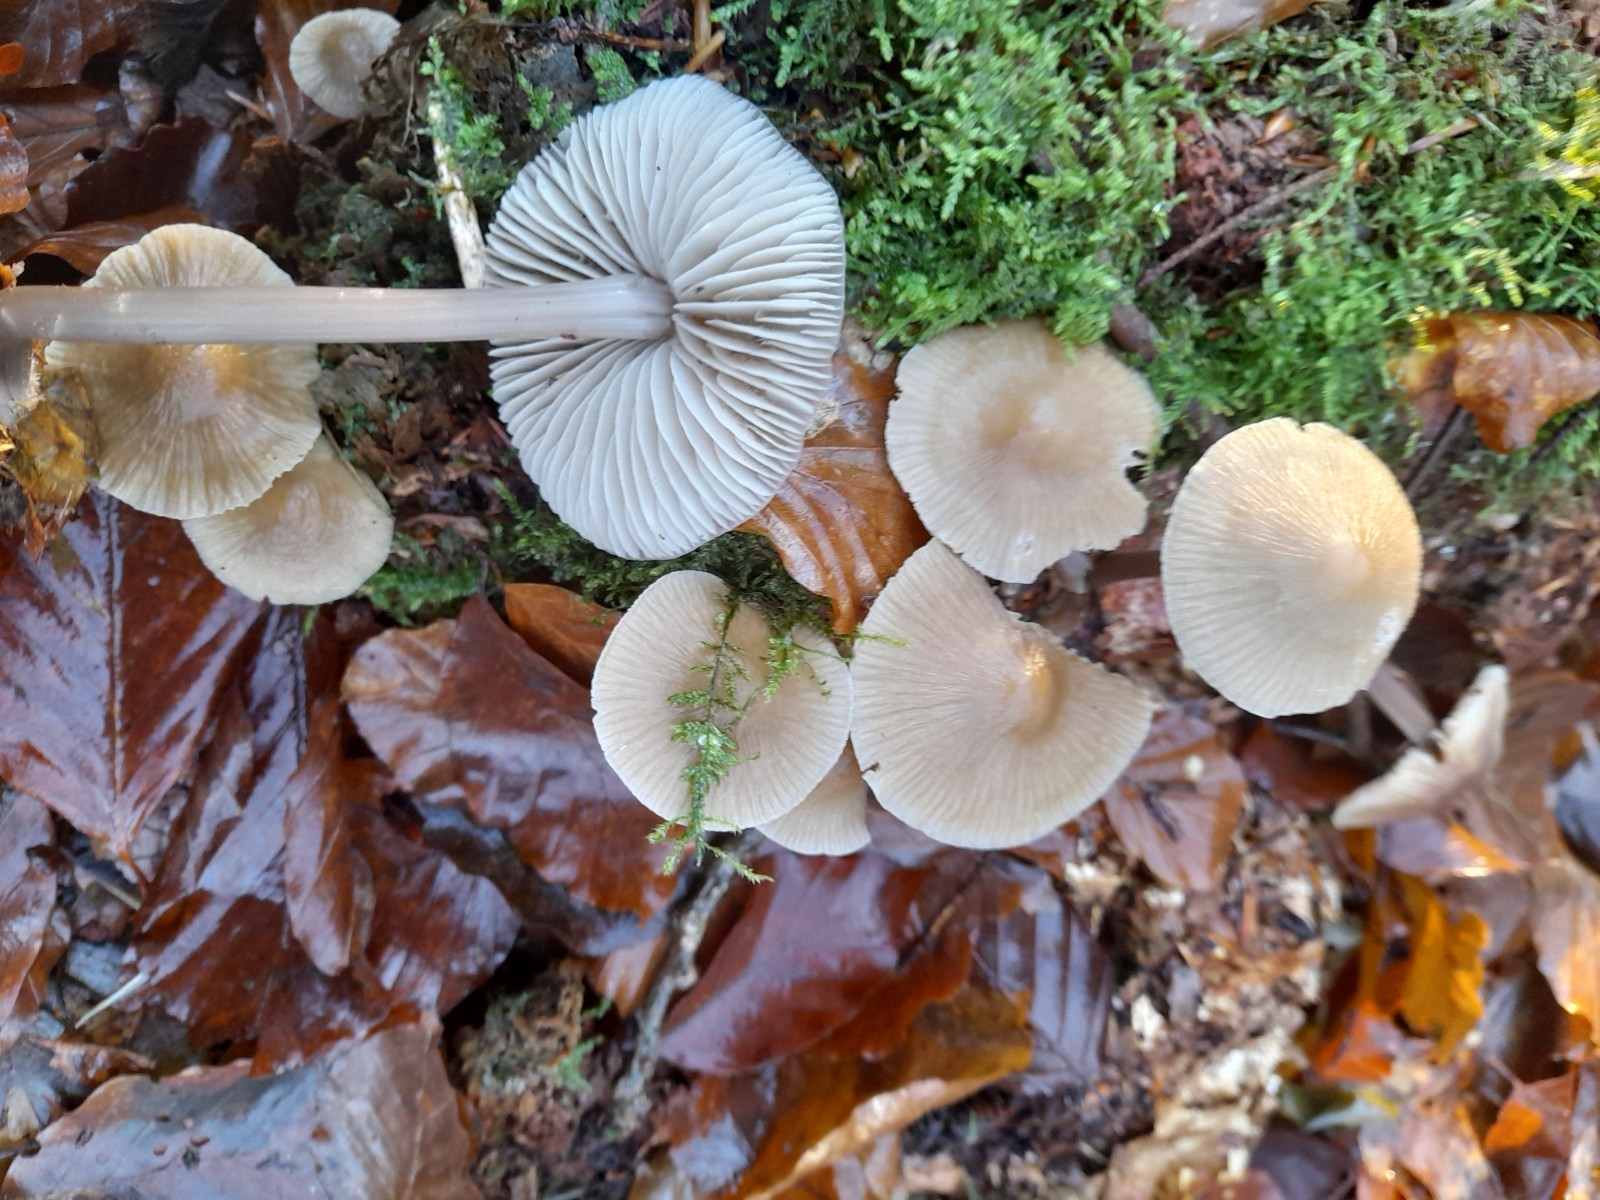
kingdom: Fungi
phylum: Basidiomycota
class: Agaricomycetes
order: Agaricales
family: Mycenaceae
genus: Mycena
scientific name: Mycena galericulata
